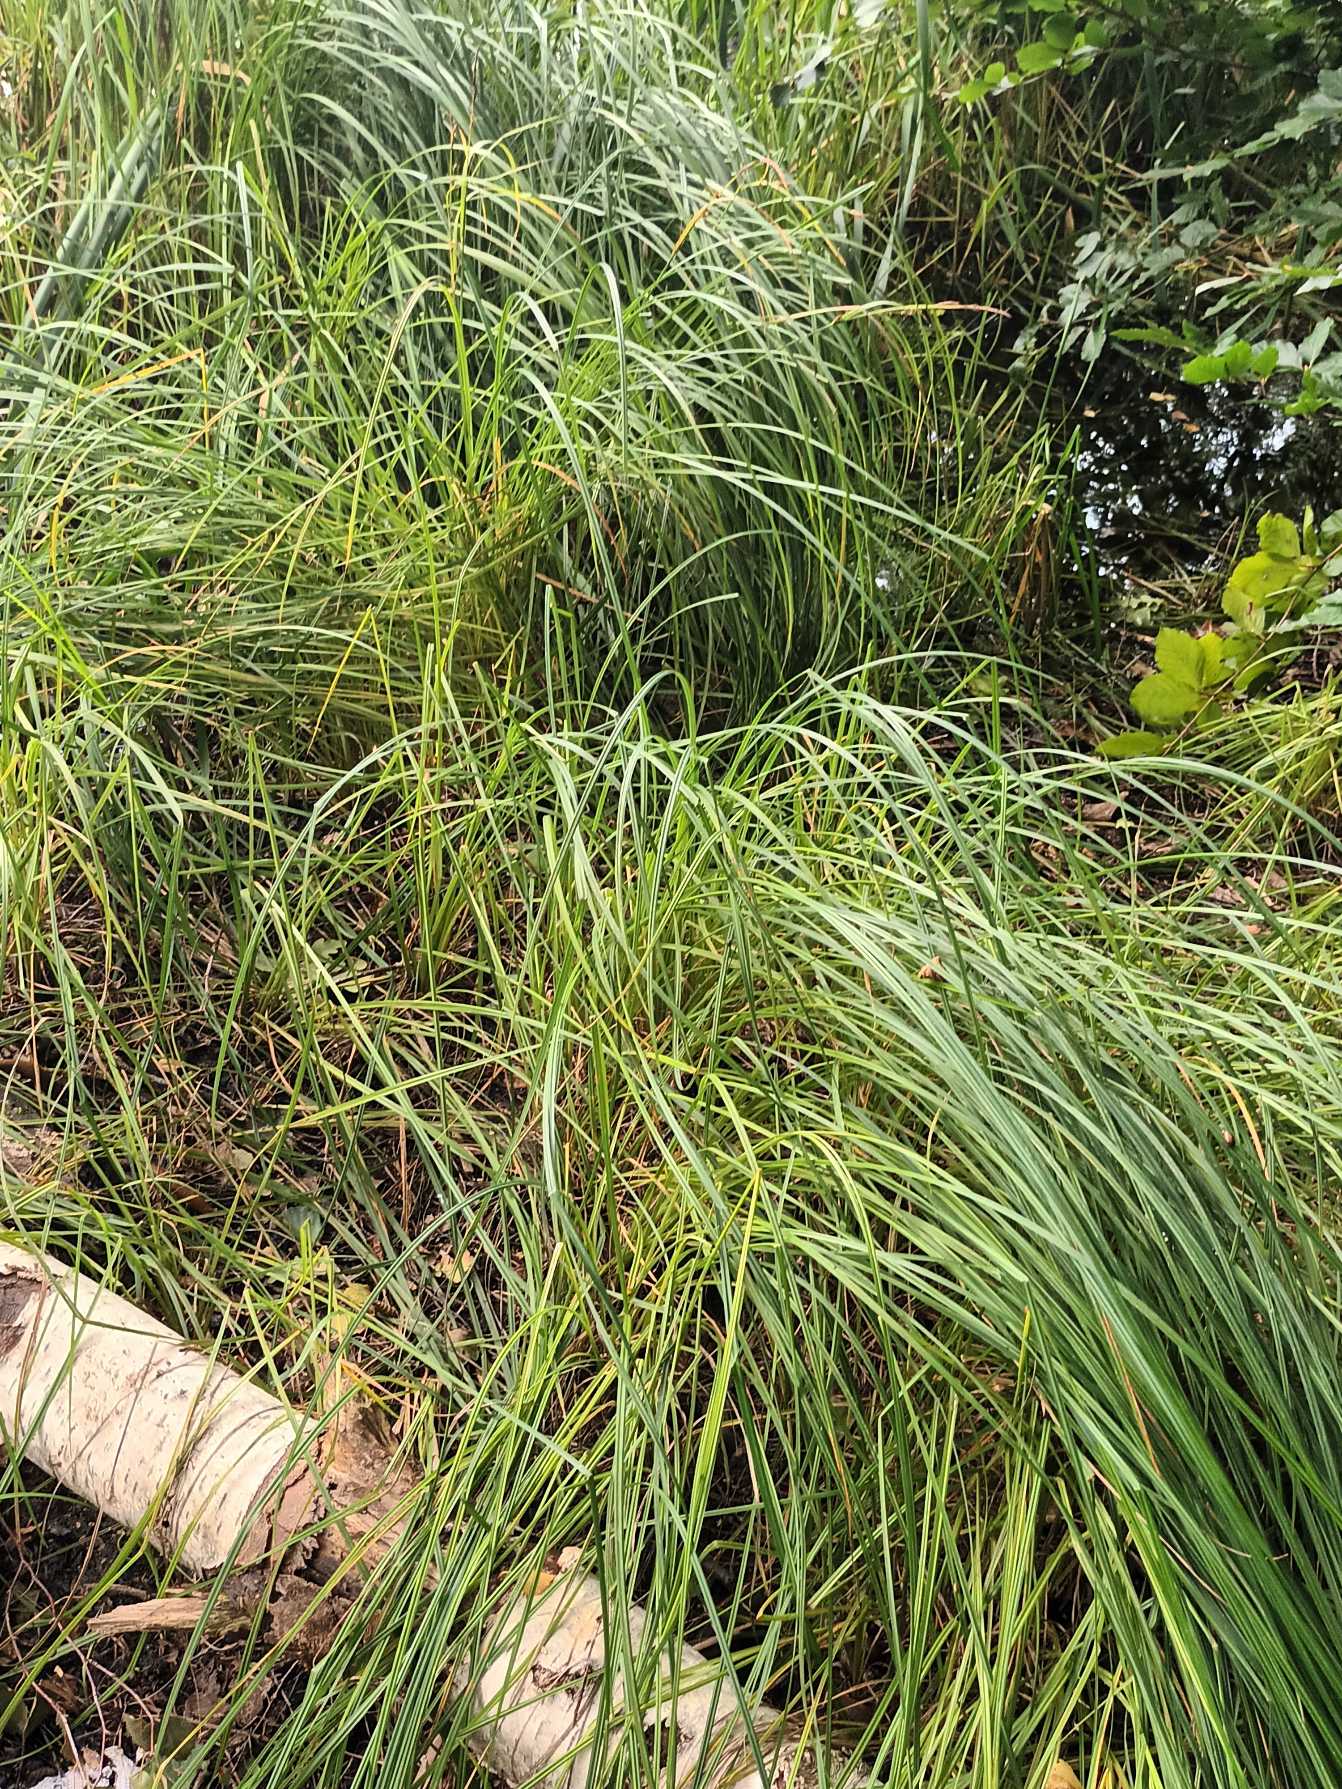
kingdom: Plantae
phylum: Tracheophyta
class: Liliopsida
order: Poales
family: Cyperaceae
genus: Carex
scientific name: Carex acutiformis
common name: Kær-star
